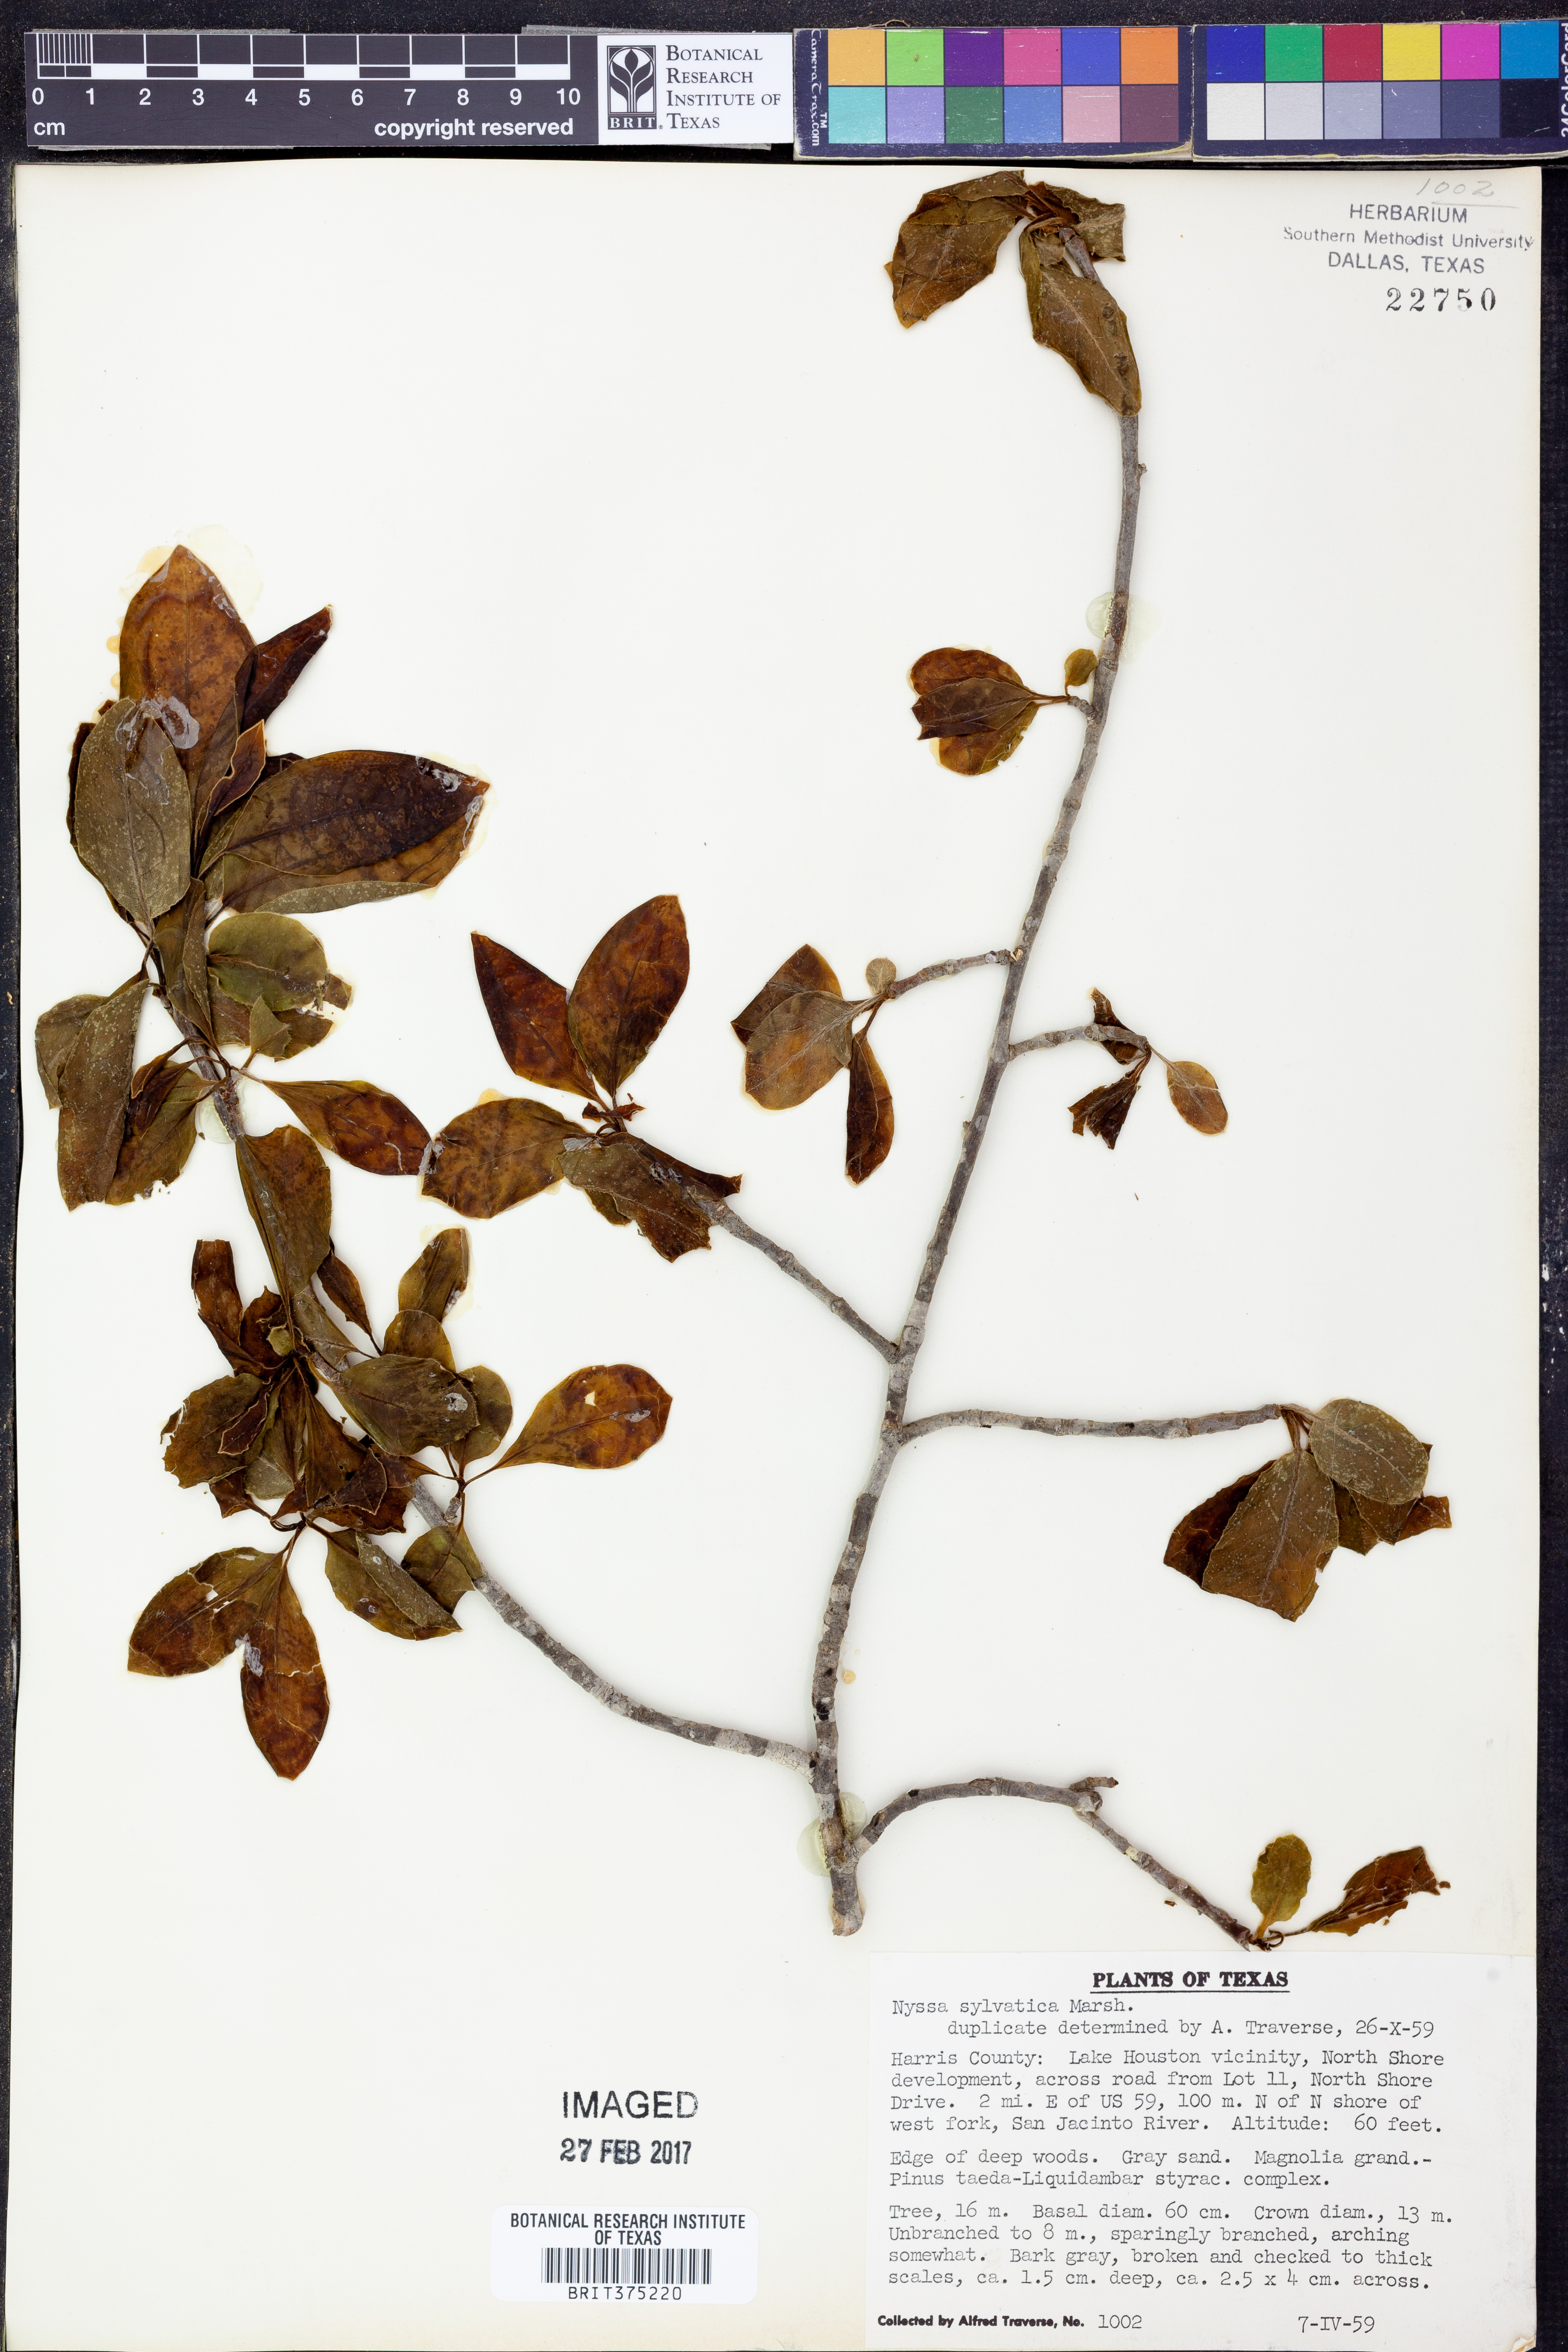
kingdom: Plantae
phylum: Tracheophyta
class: Magnoliopsida
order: Cornales
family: Nyssaceae
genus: Nyssa
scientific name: Nyssa sylvatica
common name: Black tupelo
